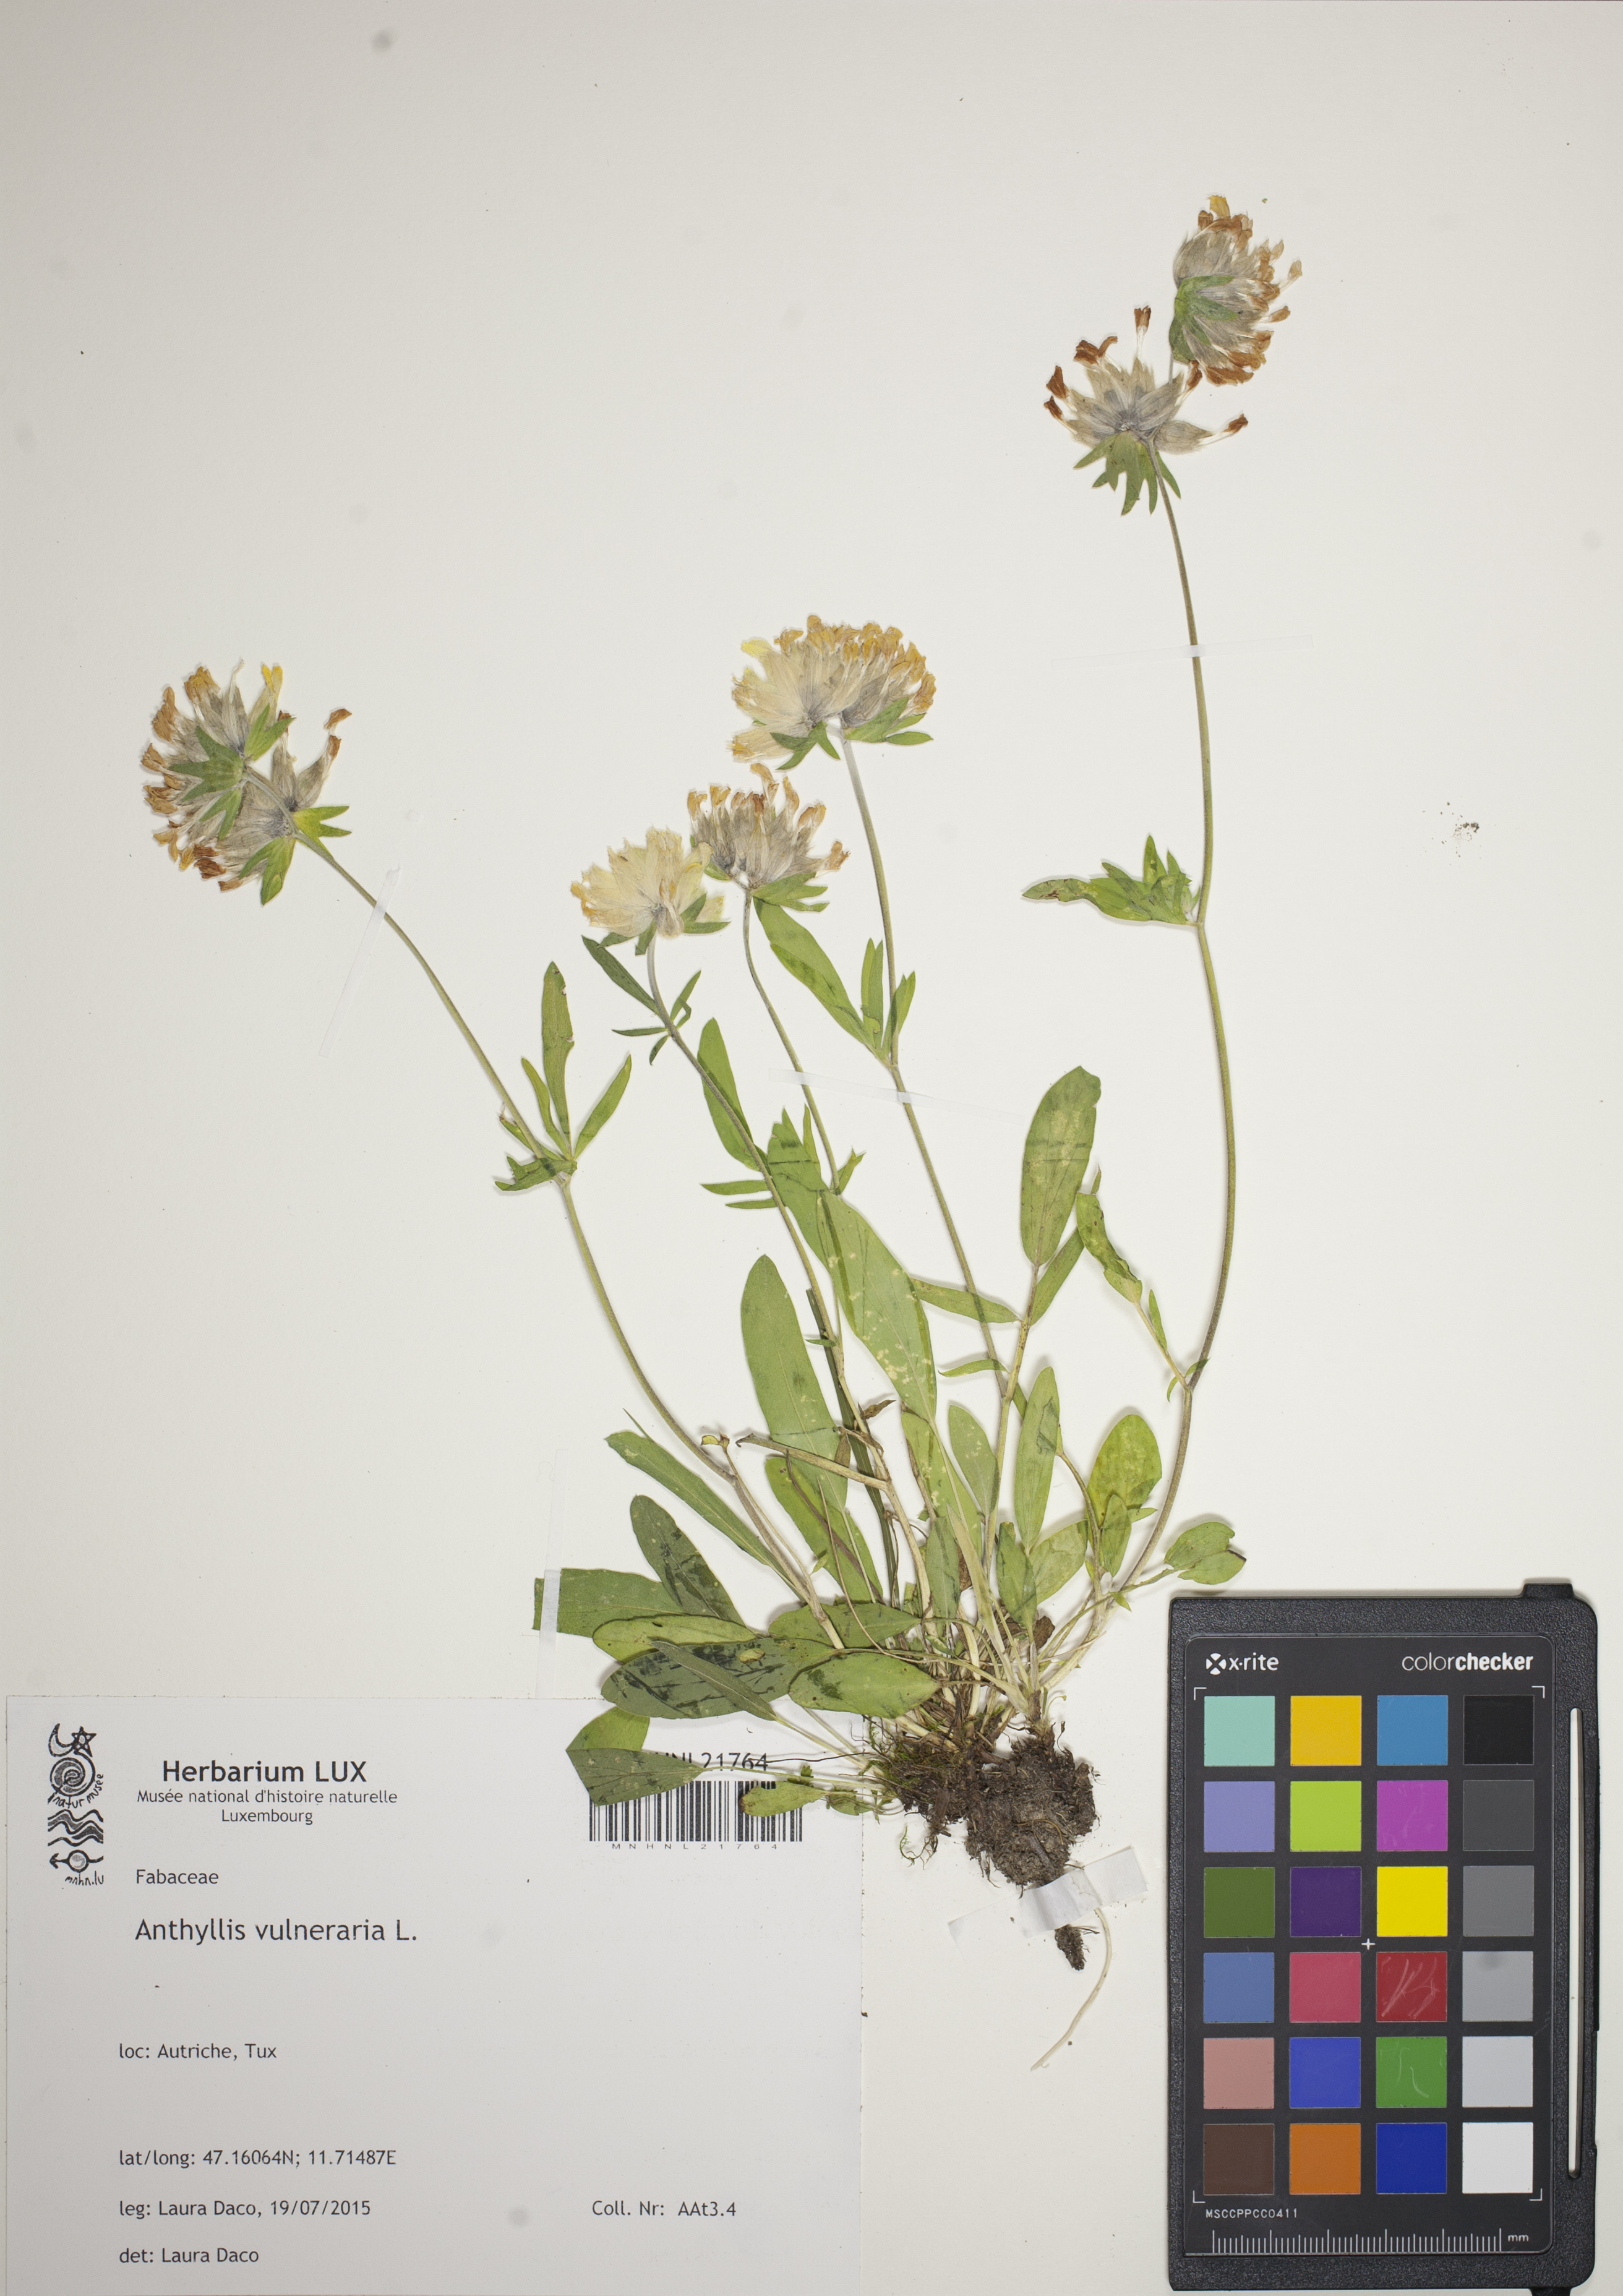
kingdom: Plantae
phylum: Tracheophyta
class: Magnoliopsida
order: Fabales
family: Fabaceae
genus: Anthyllis
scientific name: Anthyllis vulneraria
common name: Kidney vetch
